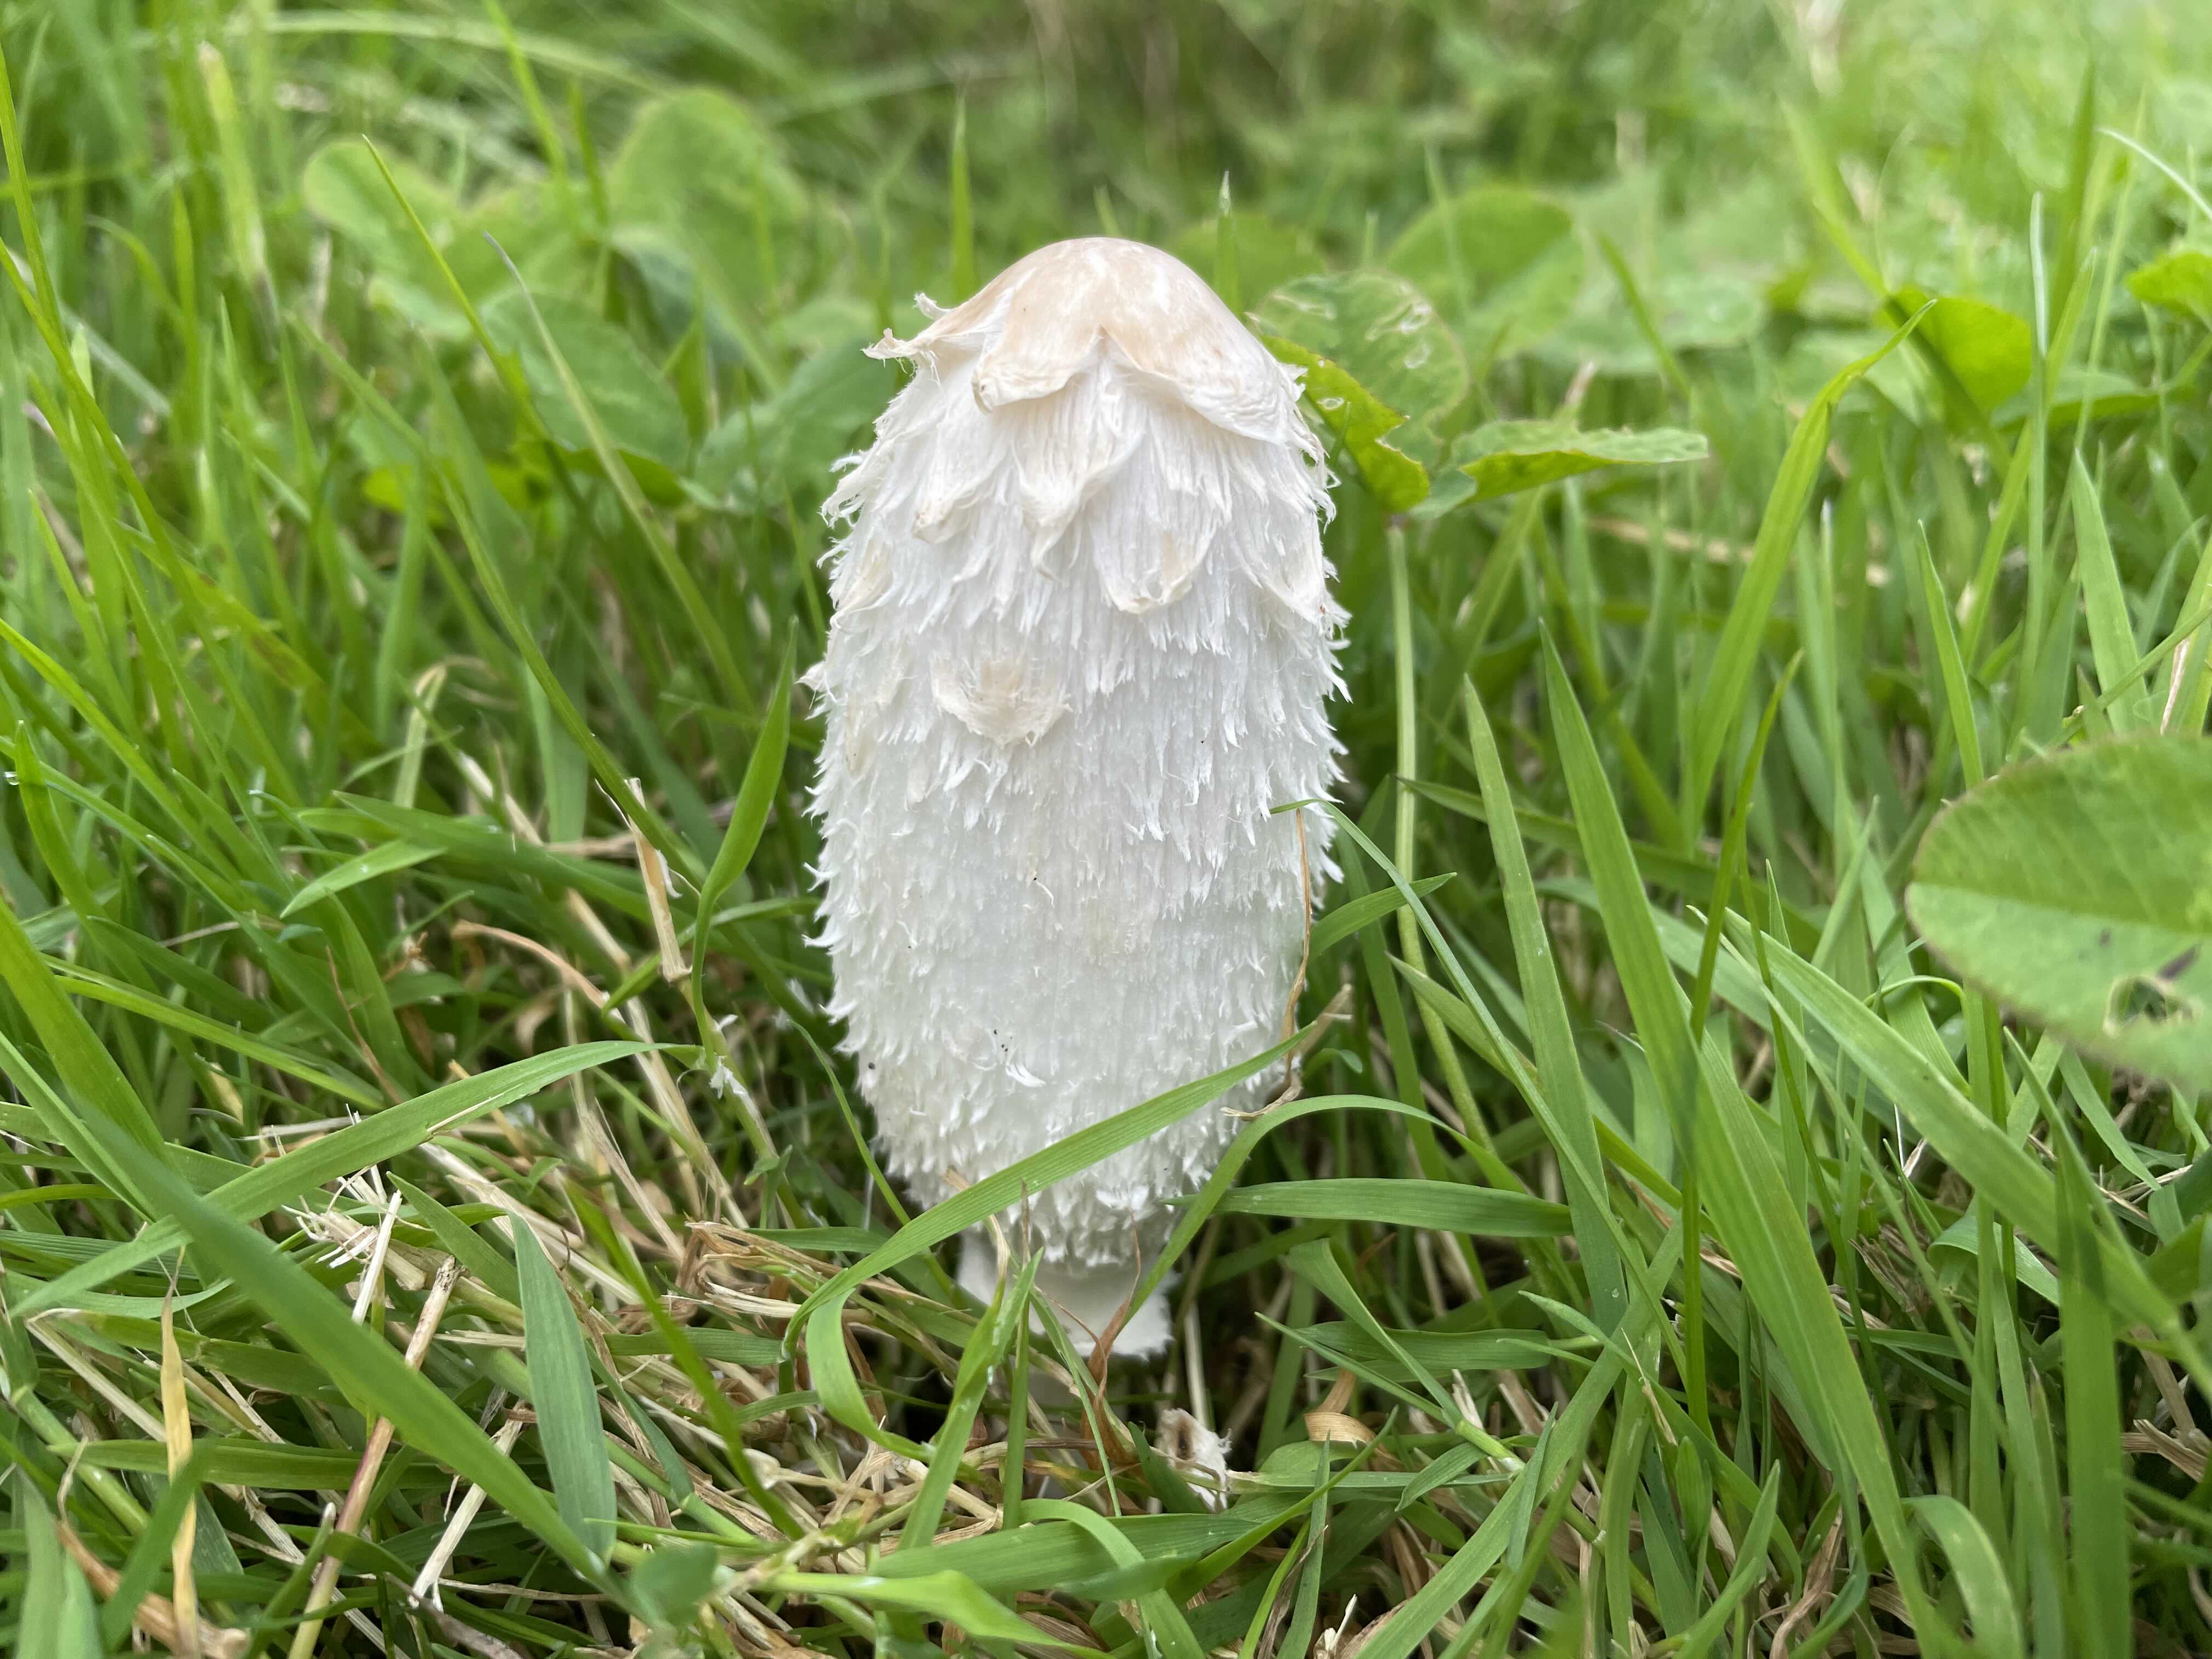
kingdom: Fungi
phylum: Basidiomycota
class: Agaricomycetes
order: Agaricales
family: Agaricaceae
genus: Coprinus
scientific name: Coprinus comatus
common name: stor parykhat
